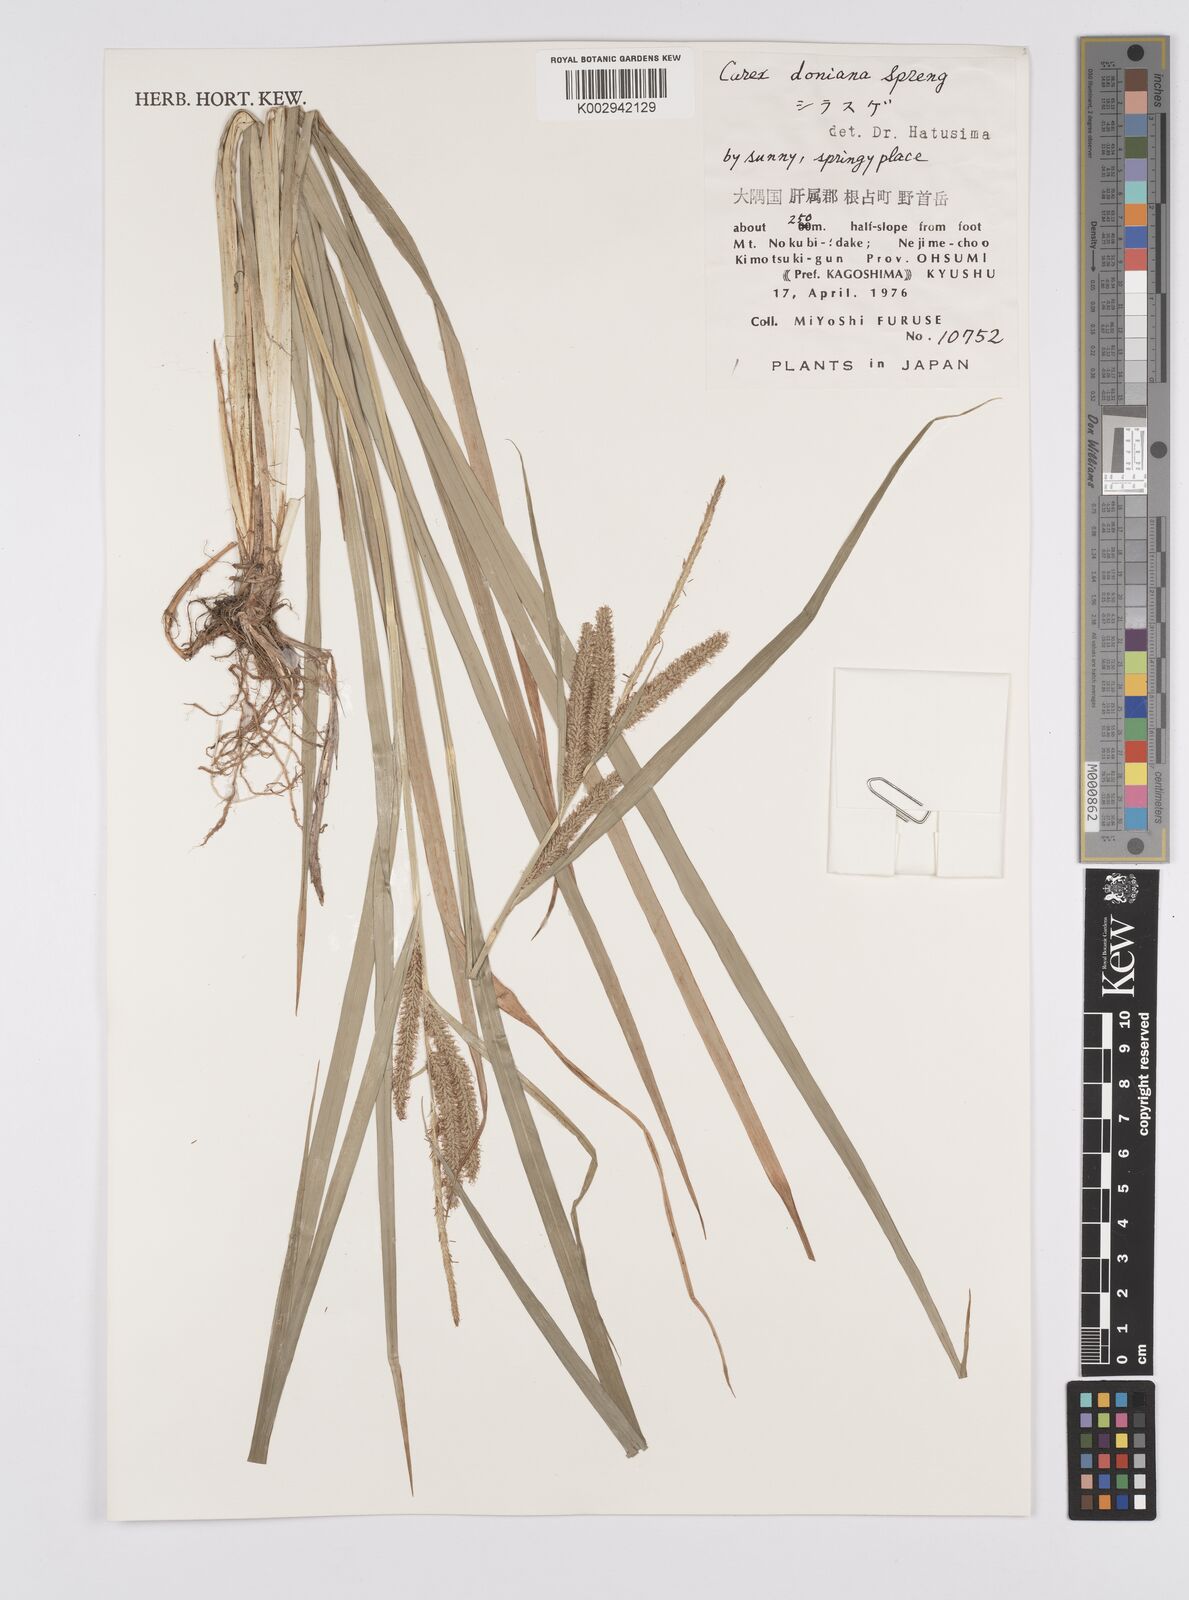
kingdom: Plantae
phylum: Tracheophyta
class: Liliopsida
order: Poales
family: Cyperaceae
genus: Carex
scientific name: Carex japonica
